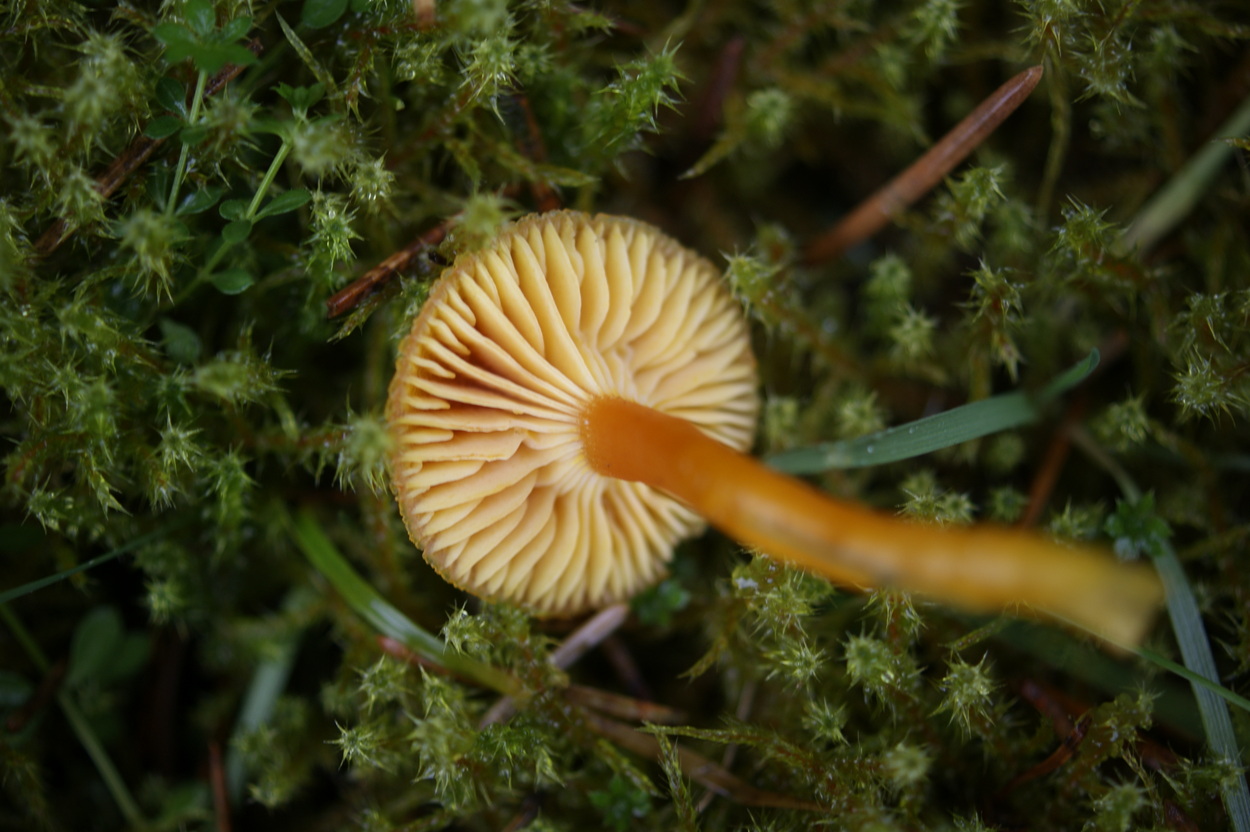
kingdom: Fungi
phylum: Basidiomycota
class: Agaricomycetes
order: Agaricales
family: Hygrophoraceae
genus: Hygrocybe
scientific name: Hygrocybe miniata
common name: mønje-vokshat
